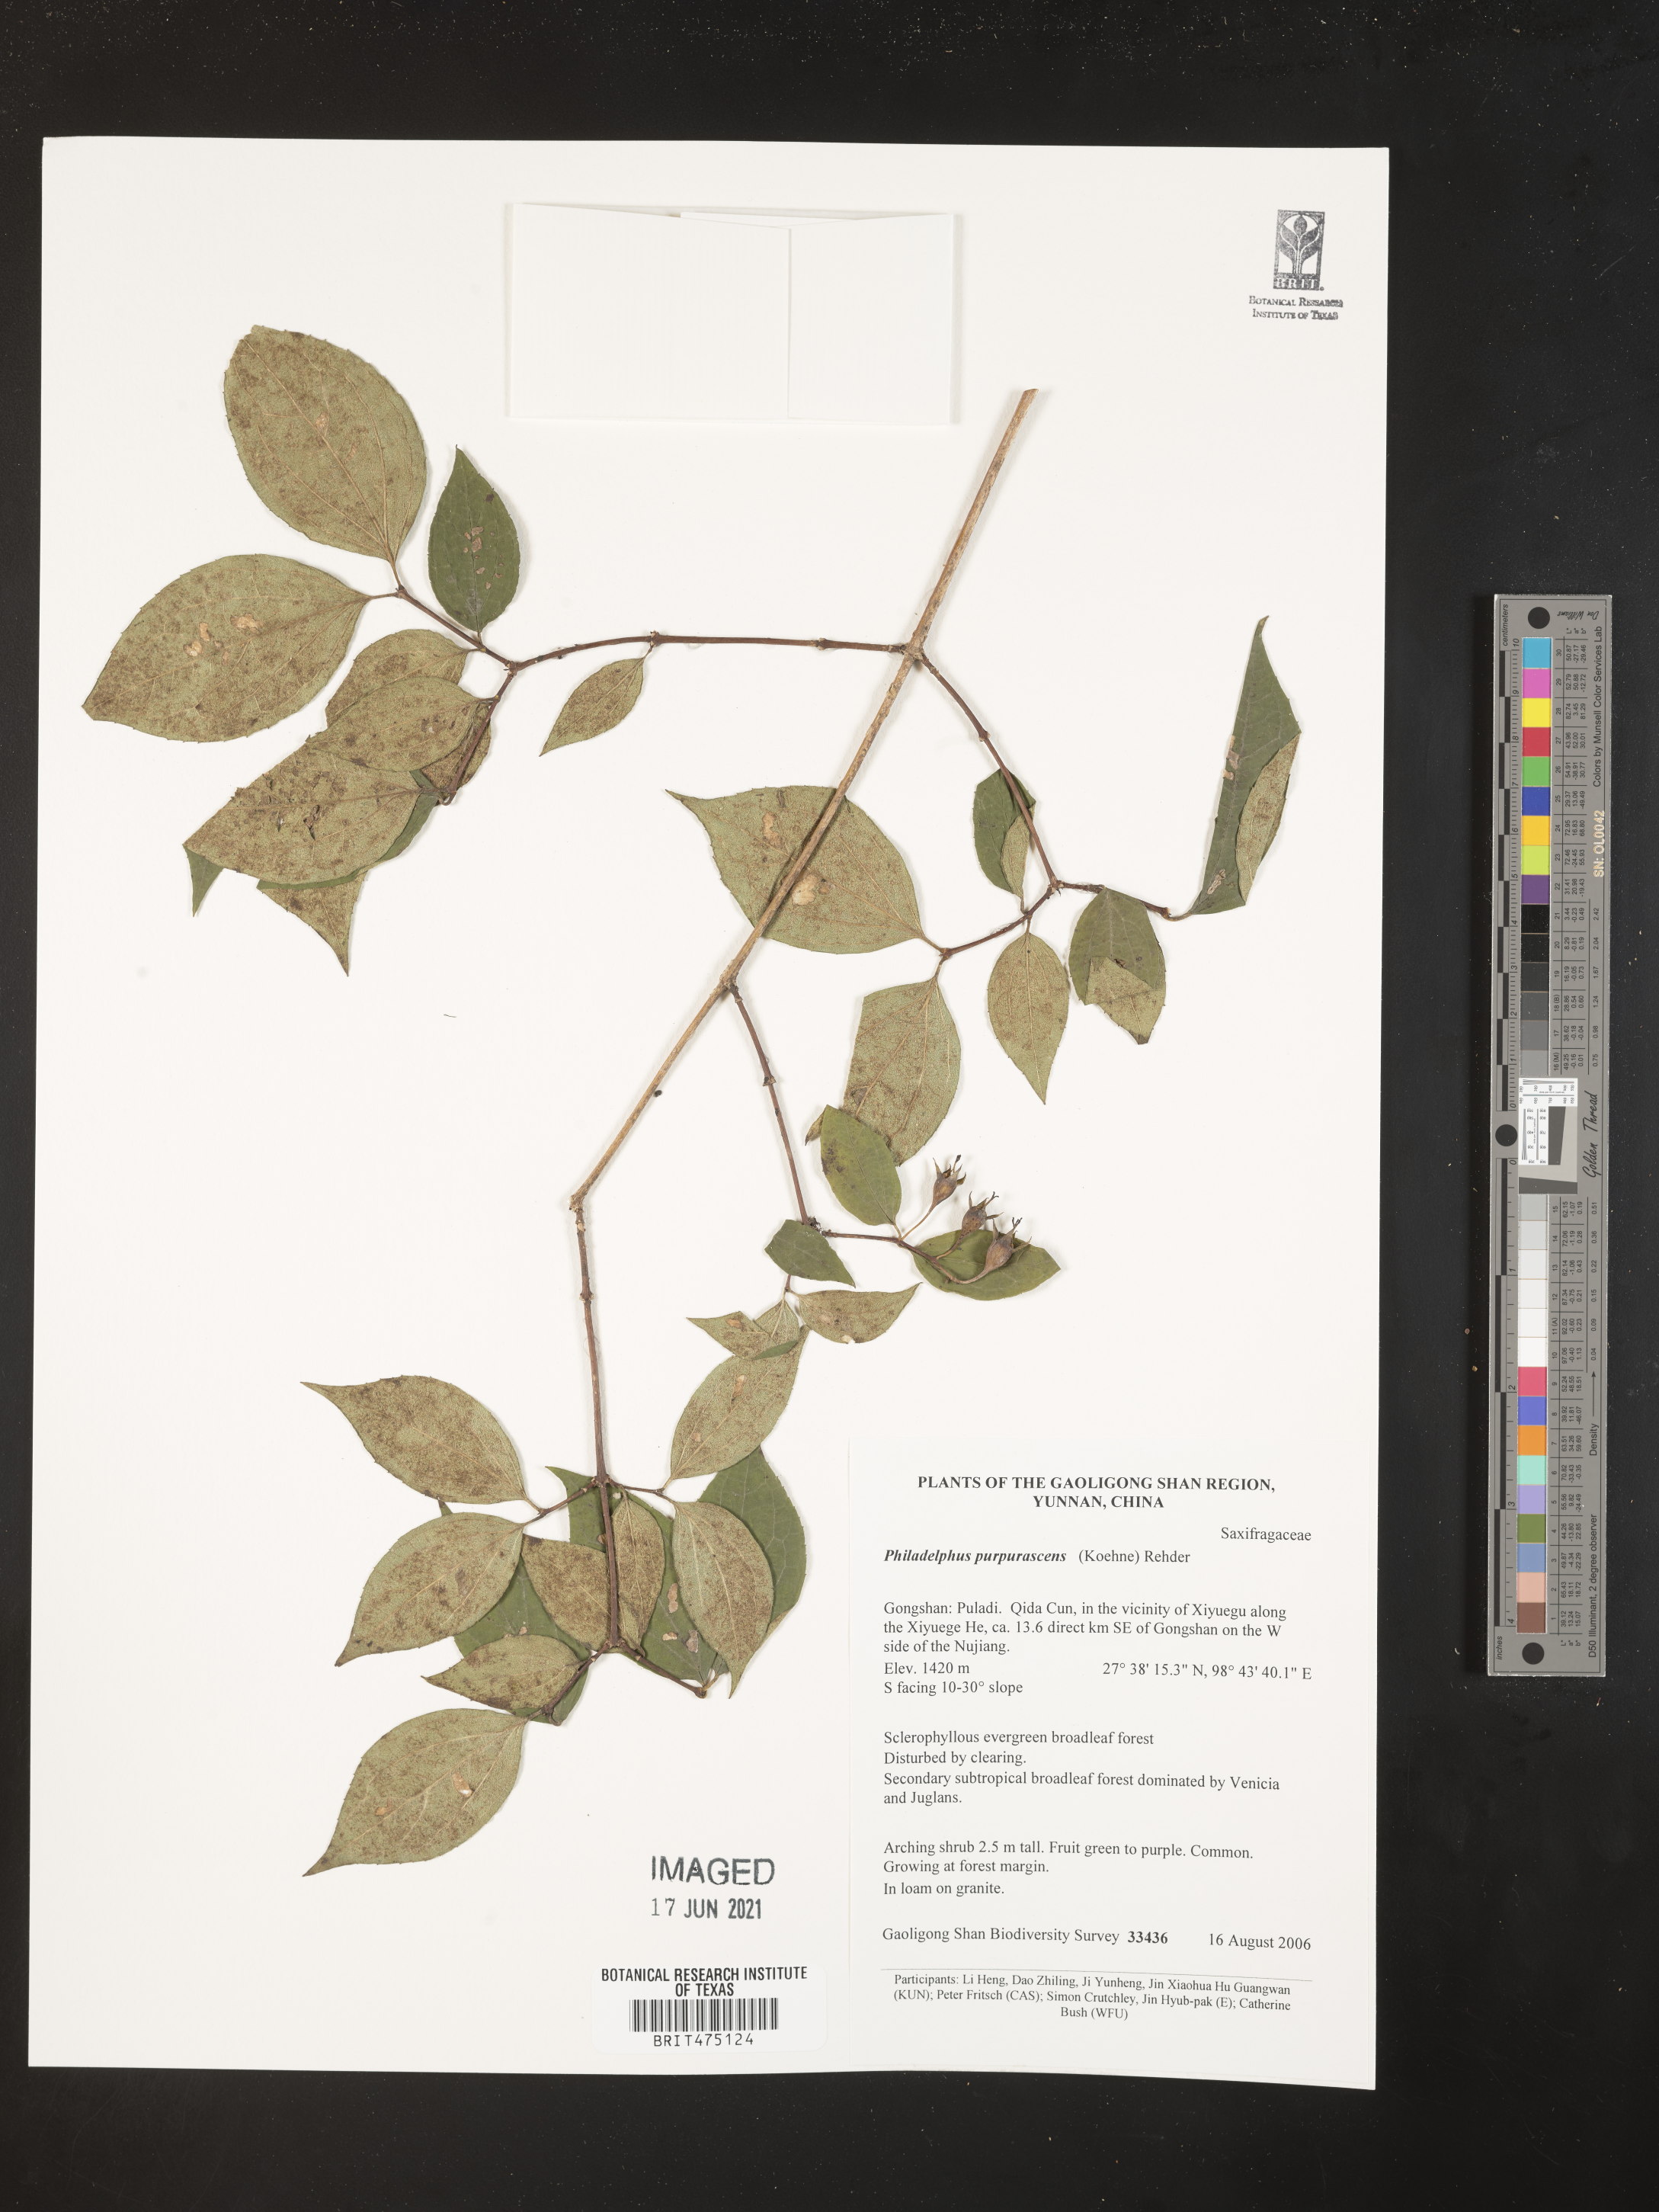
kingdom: Plantae
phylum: Tracheophyta
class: Magnoliopsida
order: Cornales
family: Hydrangeaceae
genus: Philadelphus
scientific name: Philadelphus purpurascens
